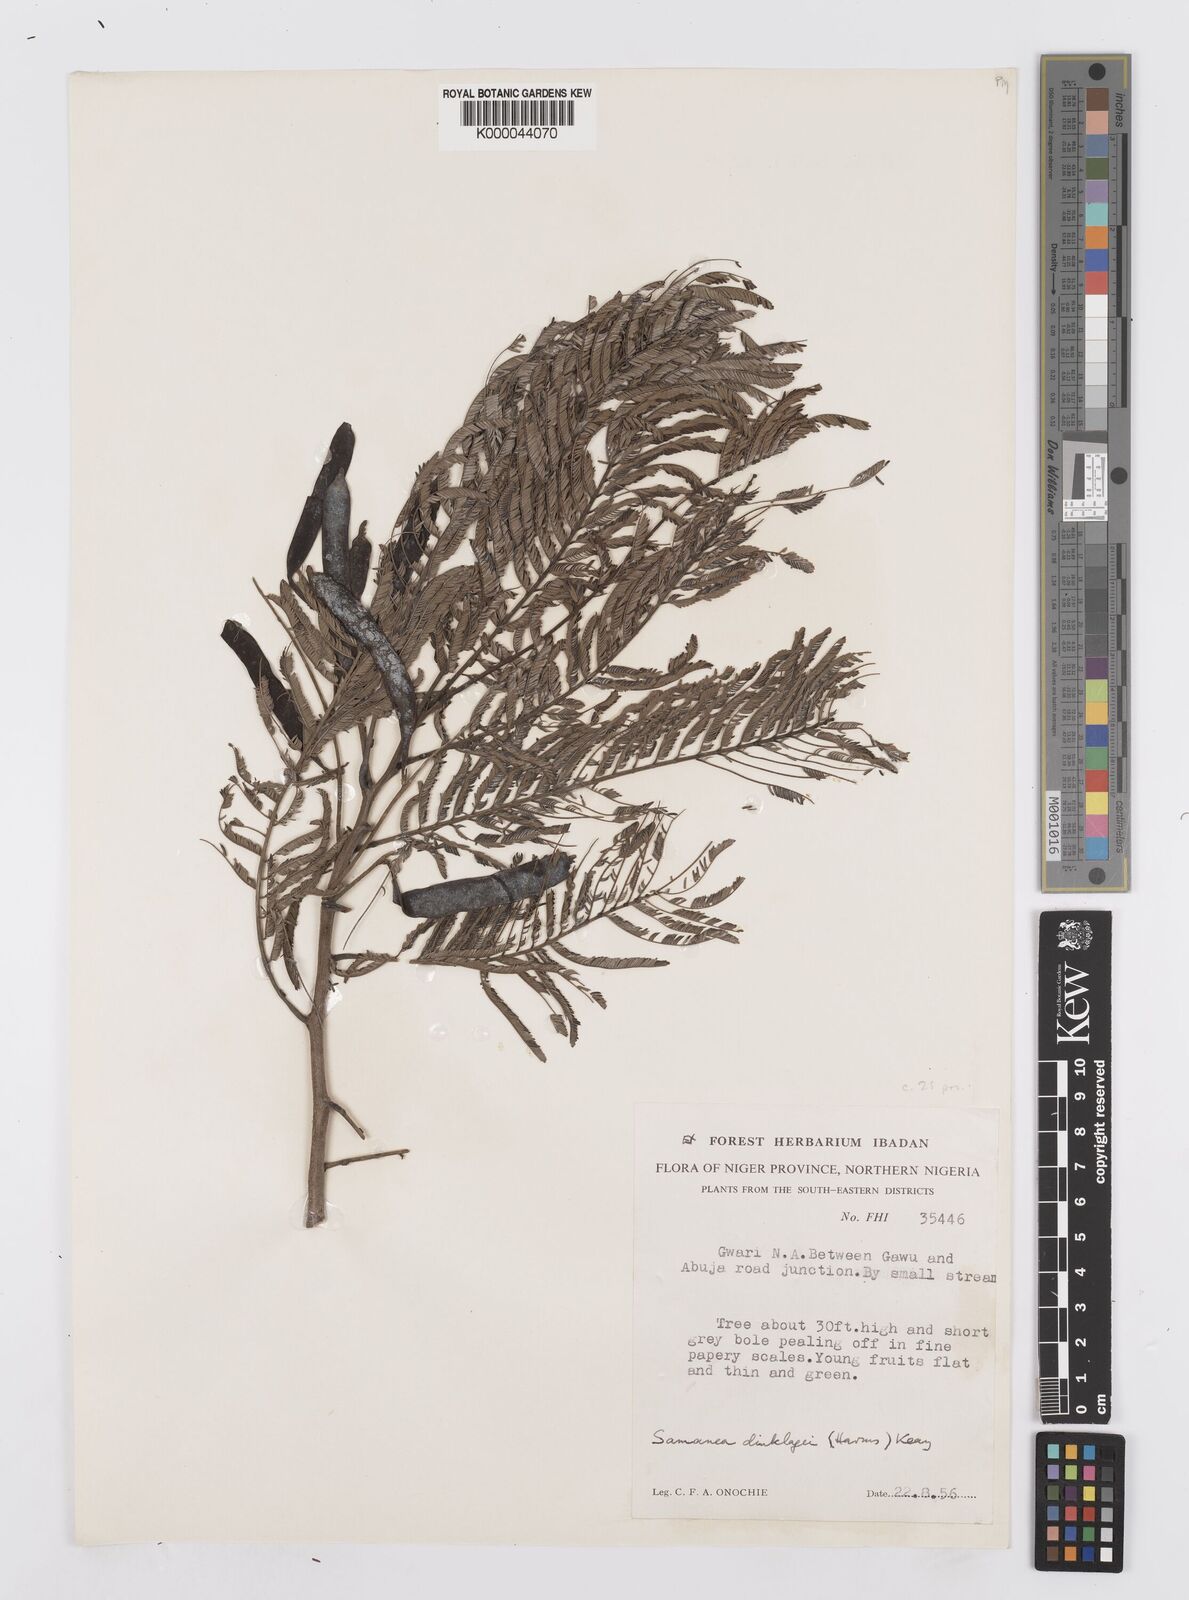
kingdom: Plantae
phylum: Tracheophyta
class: Magnoliopsida
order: Fabales
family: Fabaceae
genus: Albizia
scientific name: Albizia dinklagei
